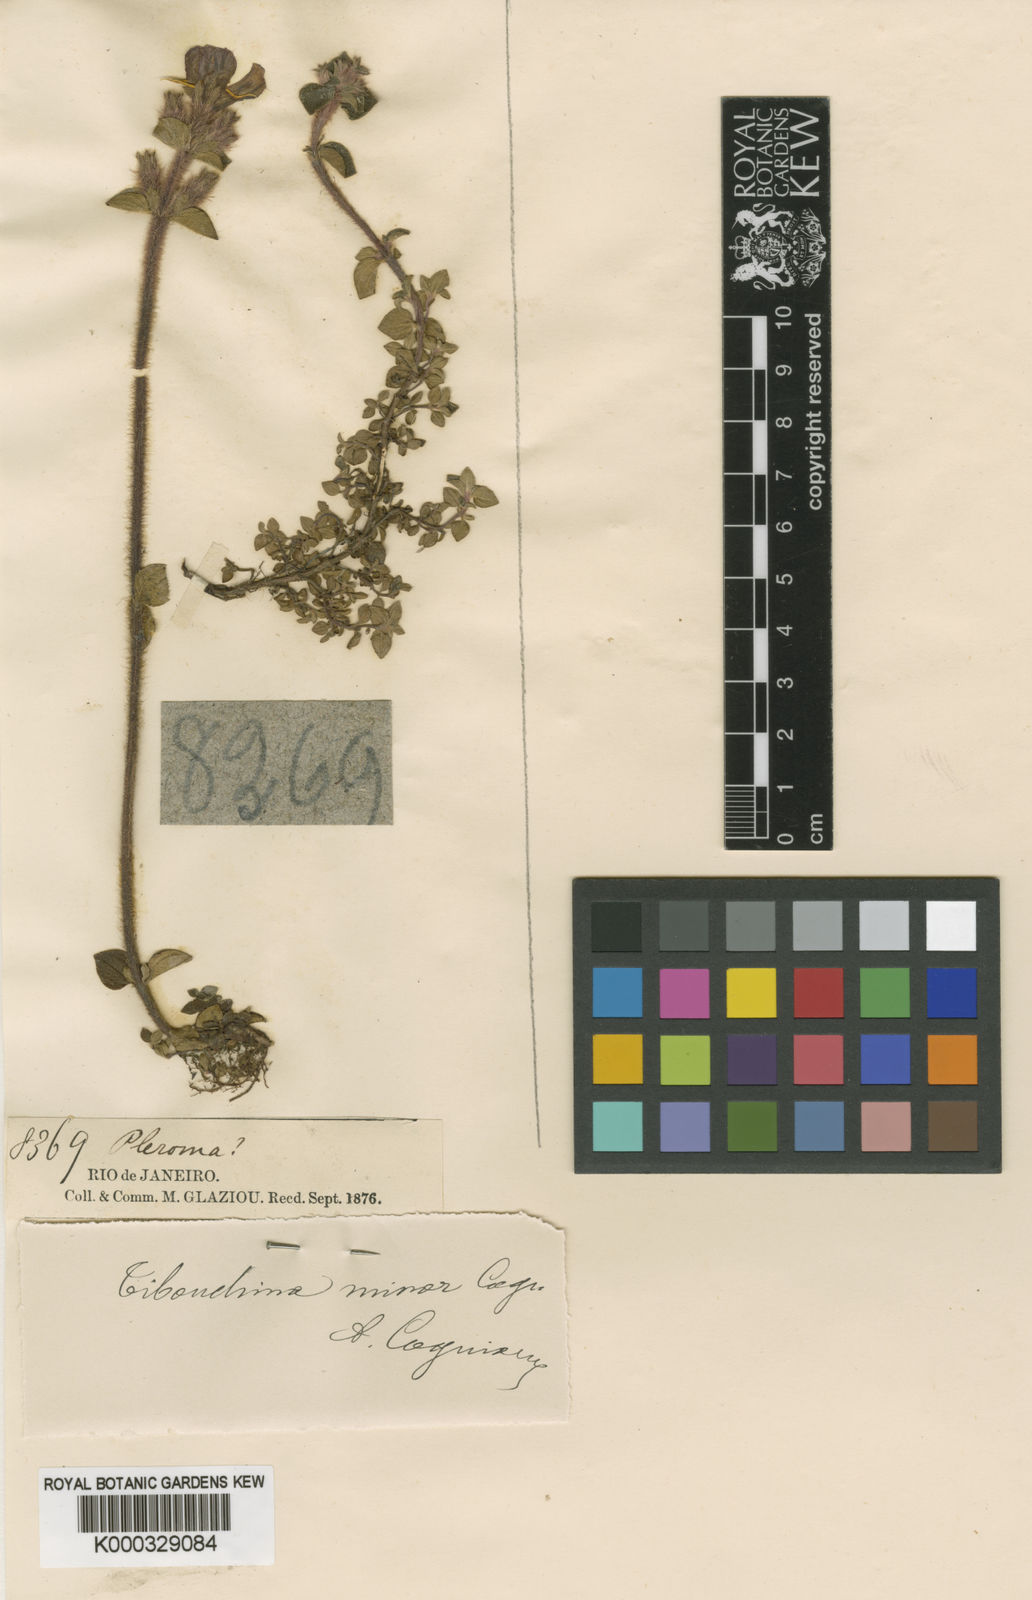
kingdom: Plantae
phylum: Tracheophyta
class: Magnoliopsida
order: Myrtales
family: Melastomataceae
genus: Chaetogastra
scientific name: Chaetogastra minor
